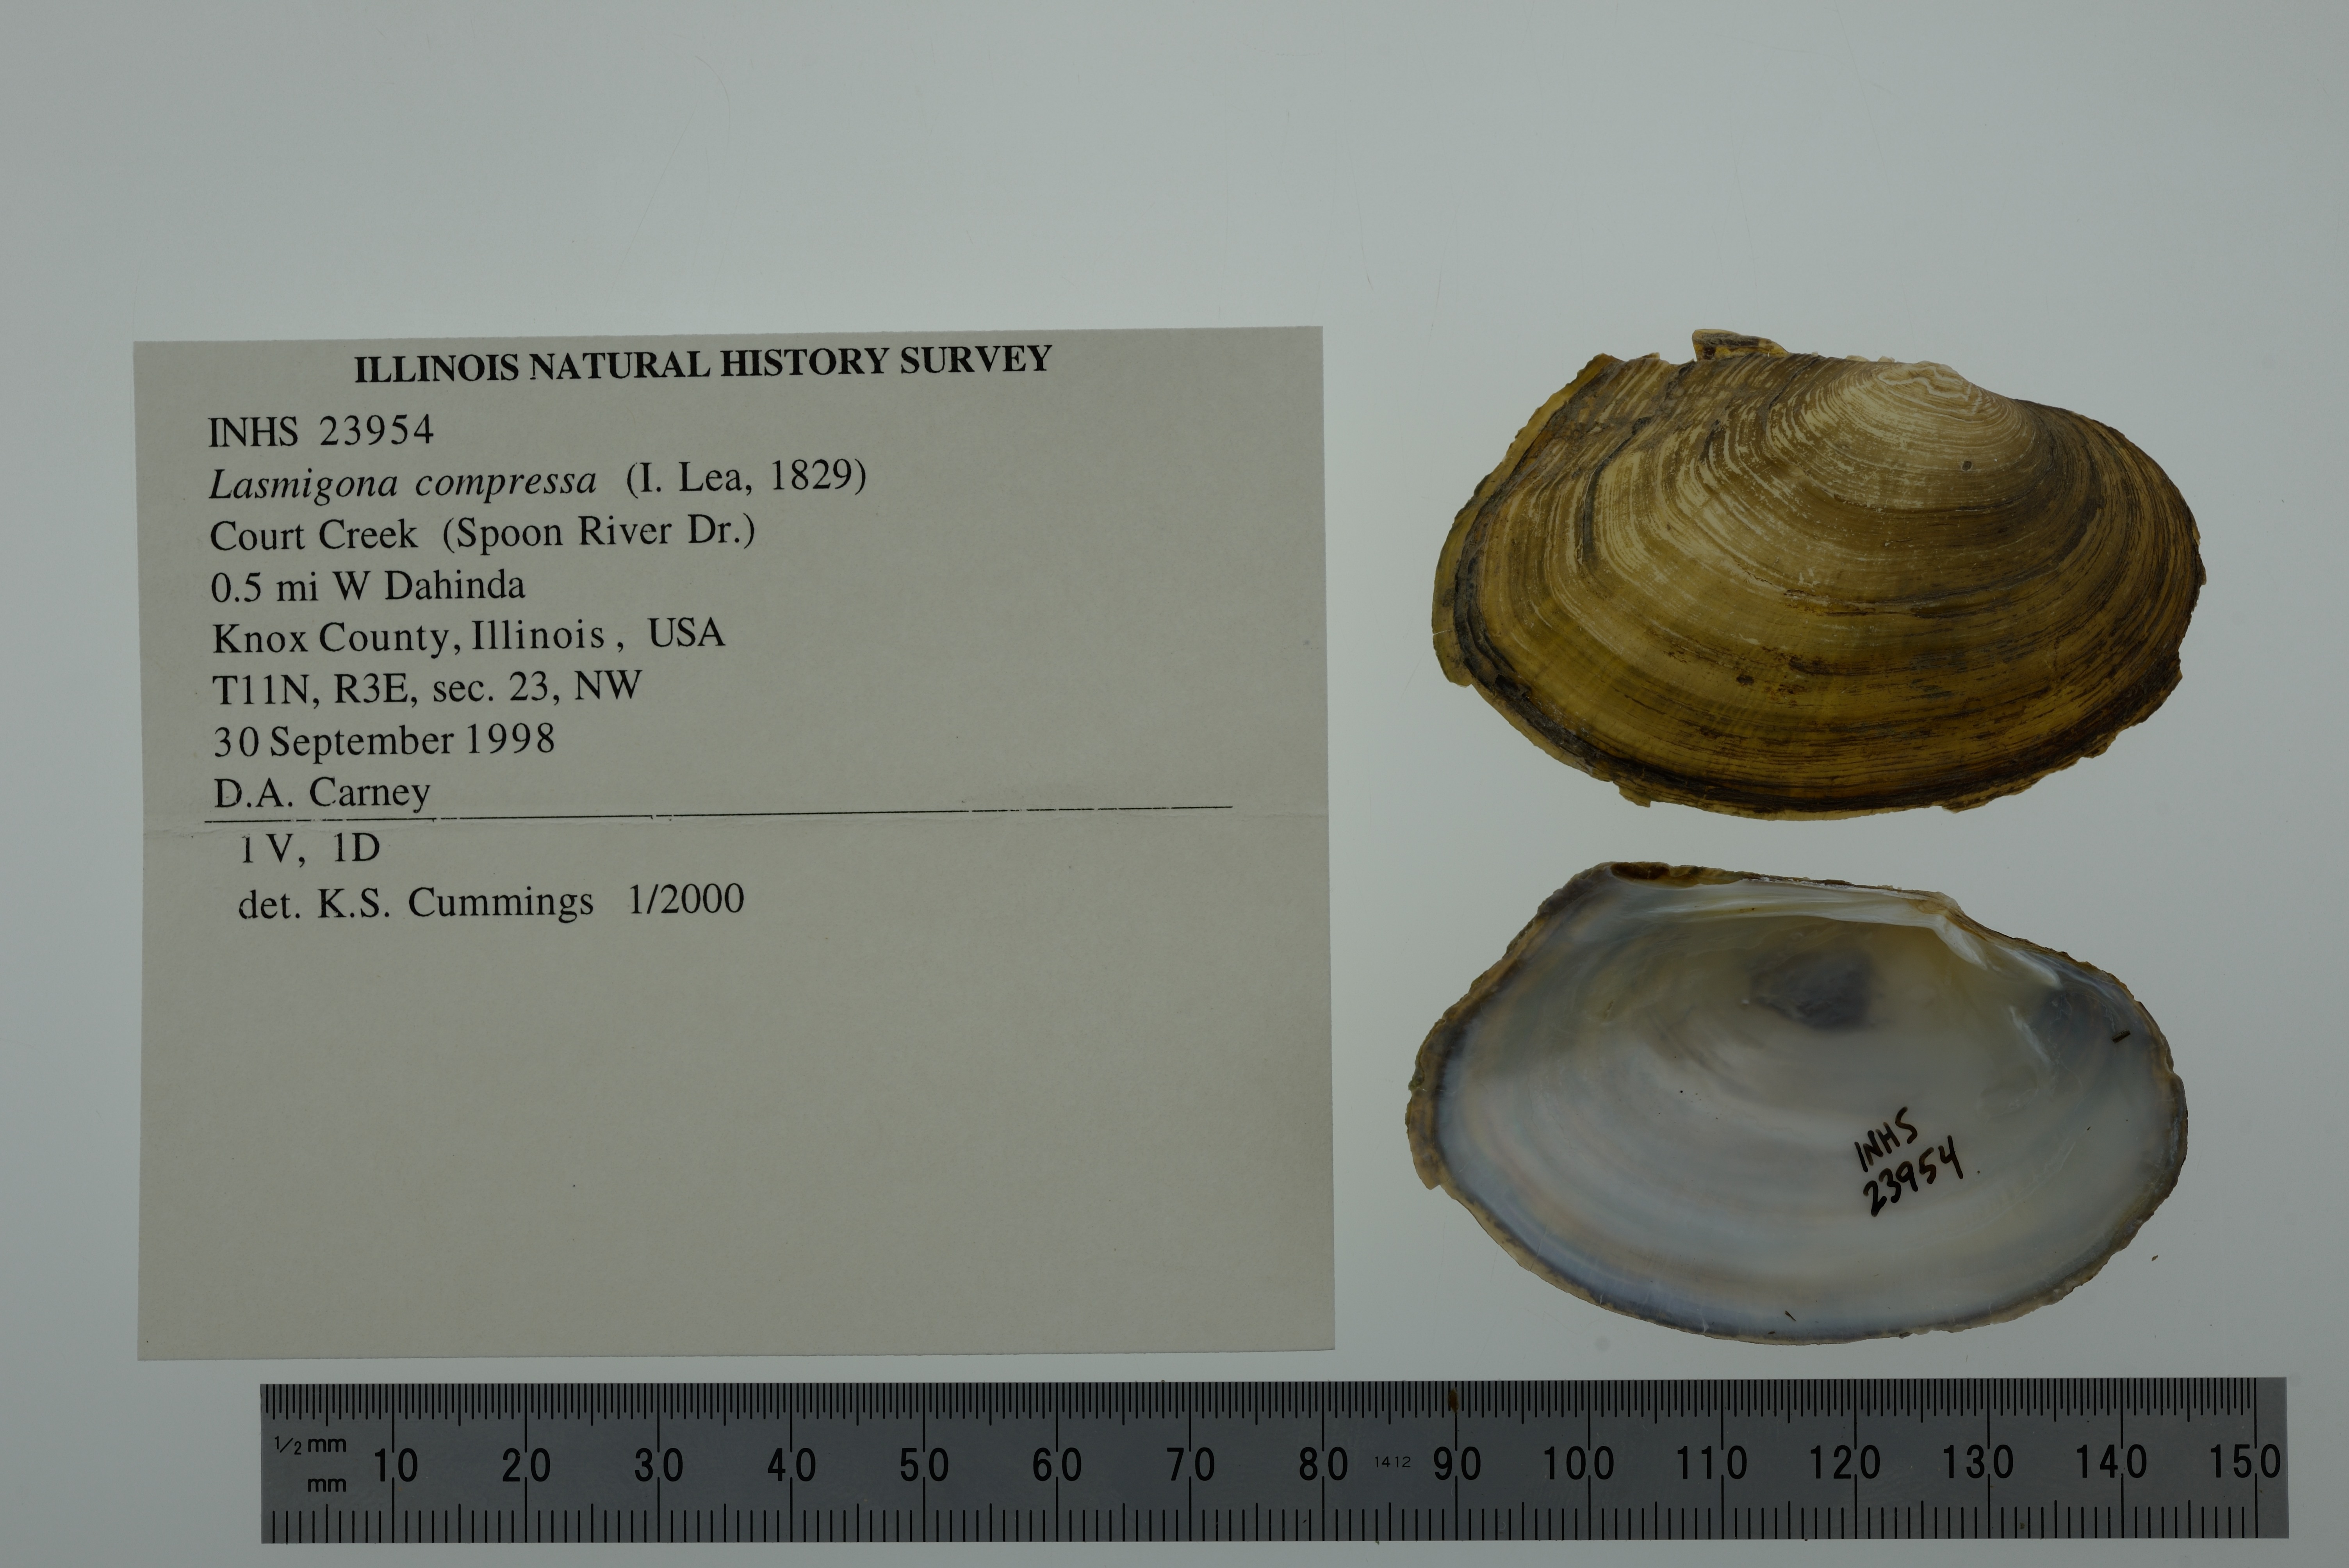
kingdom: Animalia
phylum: Mollusca
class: Bivalvia
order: Unionida
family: Unionidae
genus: Lasmigona
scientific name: Lasmigona compressa
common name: Creek heelsplitter
